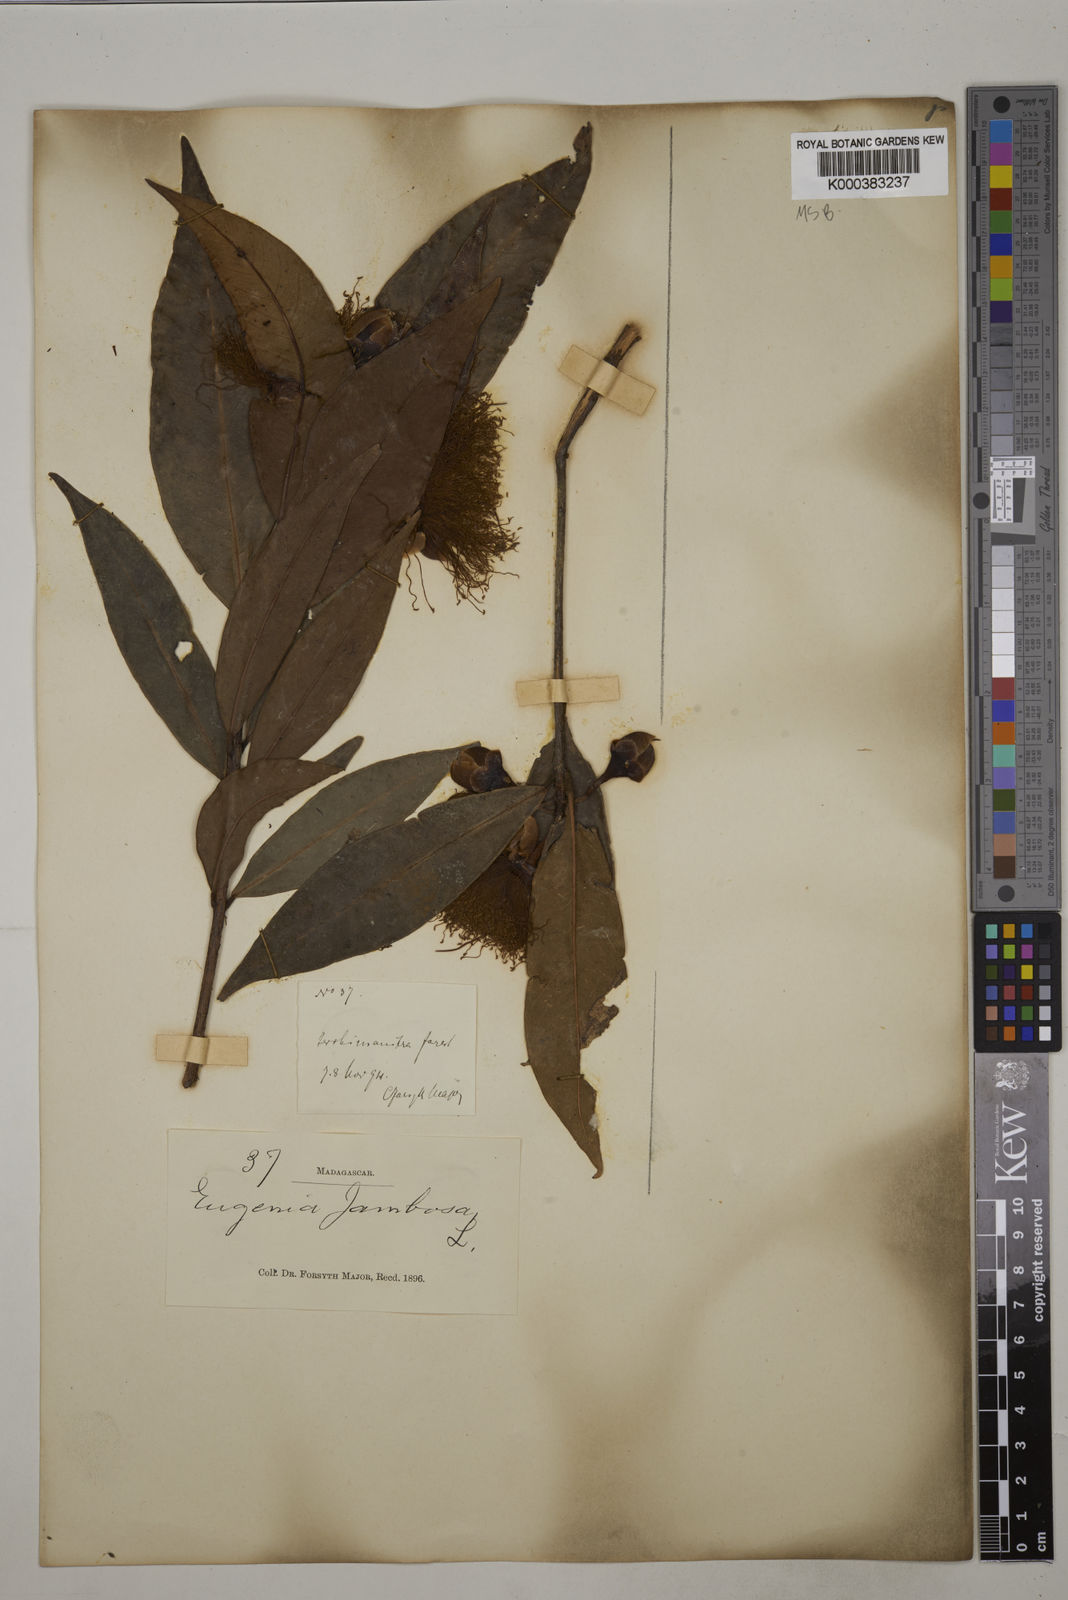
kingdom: Plantae
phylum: Tracheophyta
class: Magnoliopsida
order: Myrtales
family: Myrtaceae
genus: Syzygium
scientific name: Syzygium jambos
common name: Malabar plum
